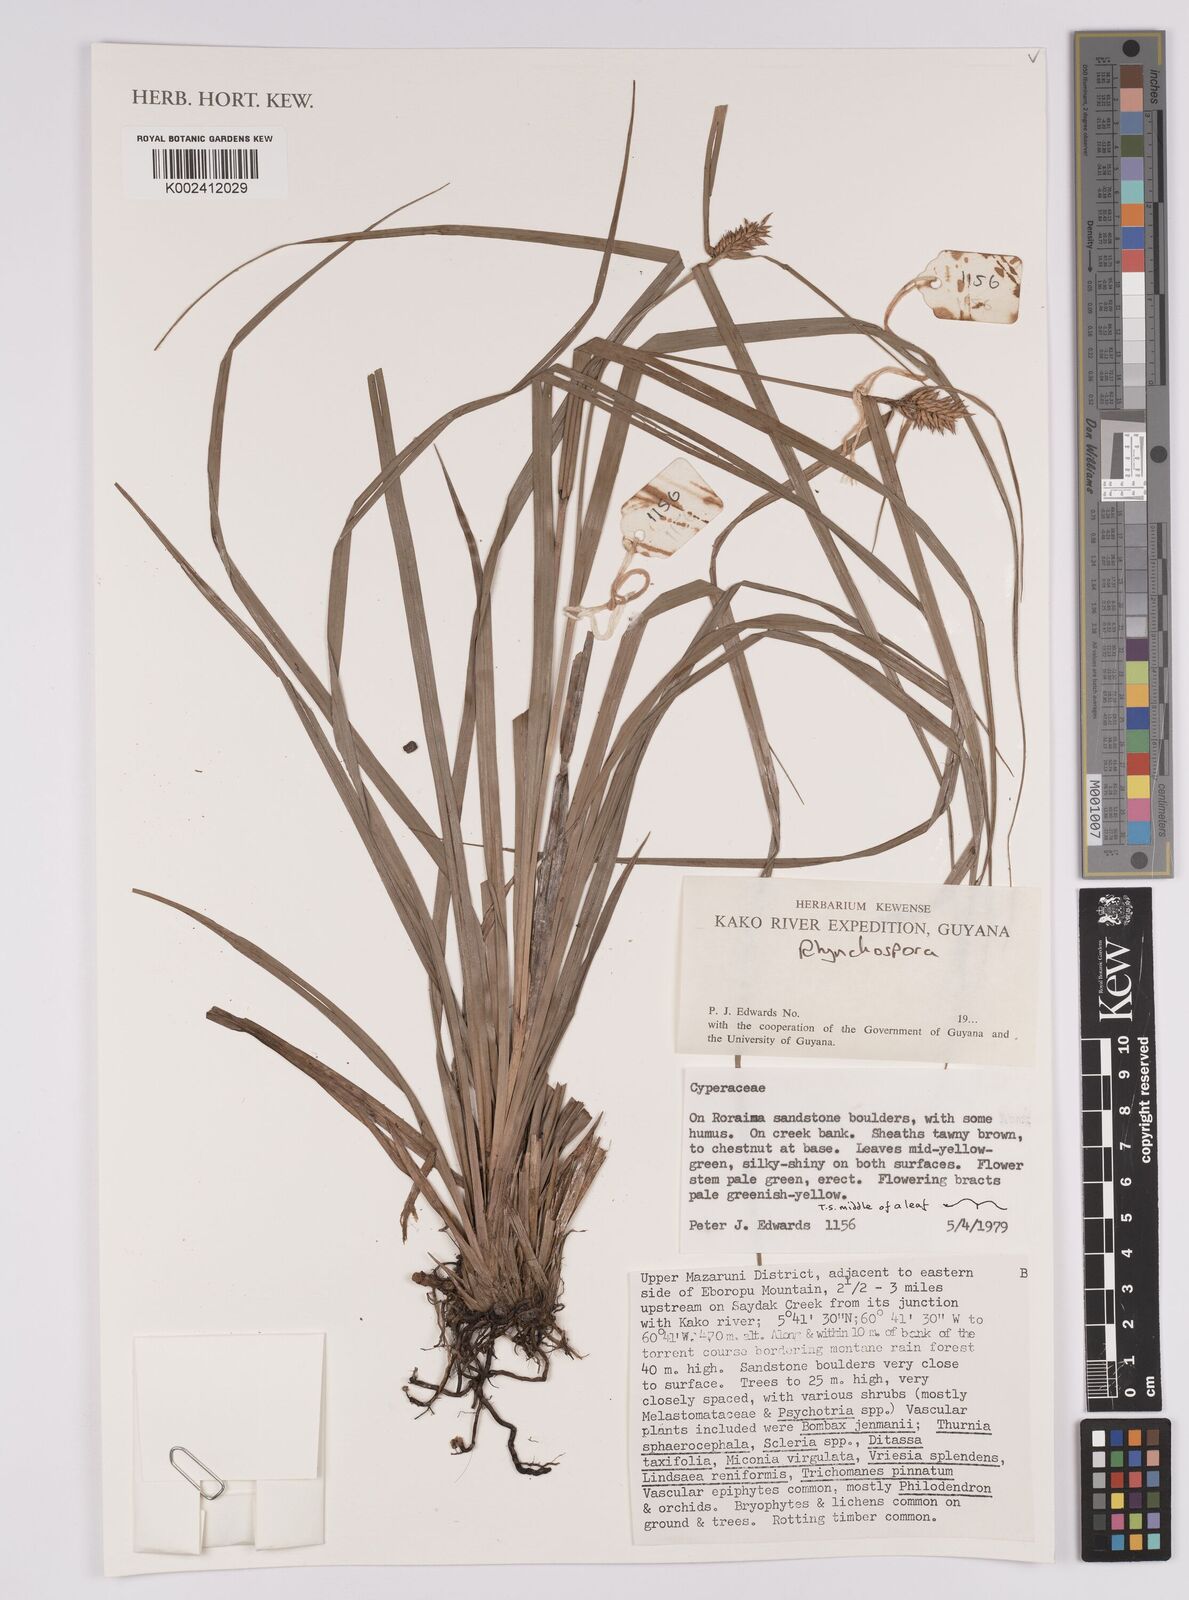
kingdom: Plantae
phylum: Tracheophyta
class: Liliopsida
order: Poales
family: Cyperaceae
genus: Rhynchospora
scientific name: Rhynchospora
